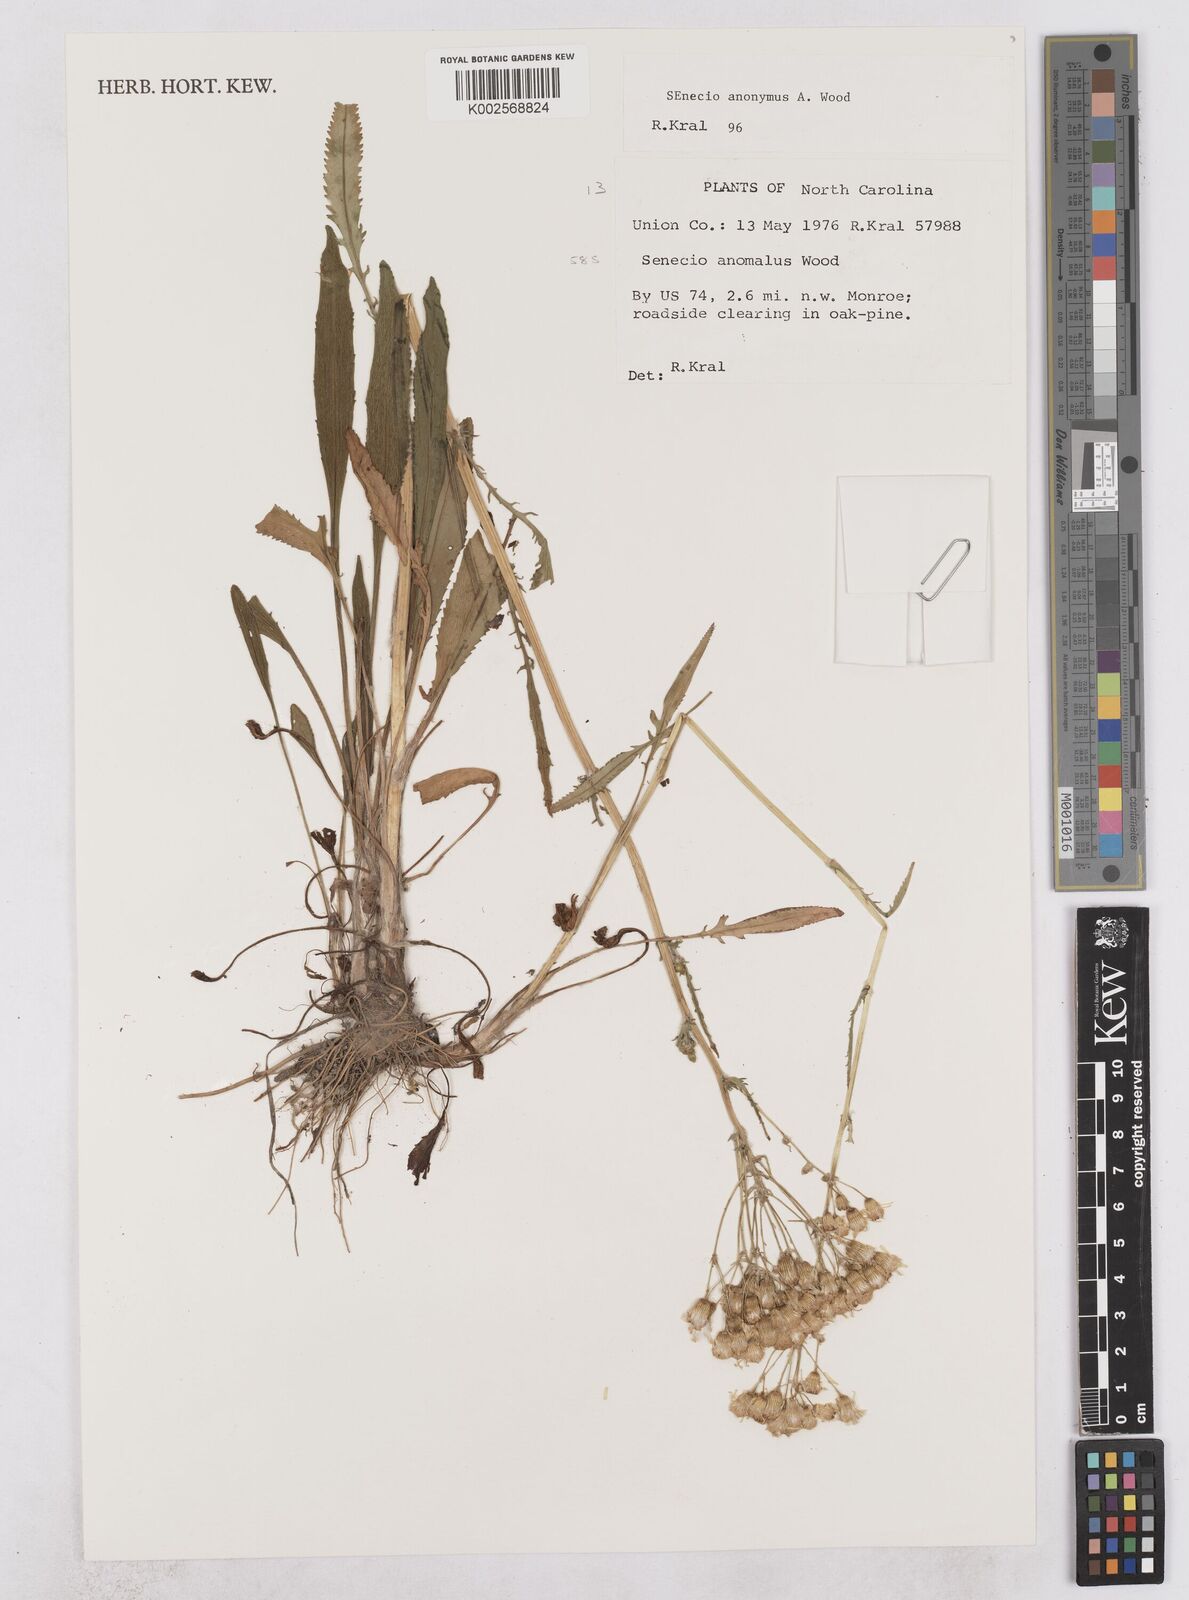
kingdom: Plantae
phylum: Tracheophyta
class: Magnoliopsida
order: Asterales
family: Asteraceae
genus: Packera
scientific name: Packera anonyma
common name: Small ragwort
